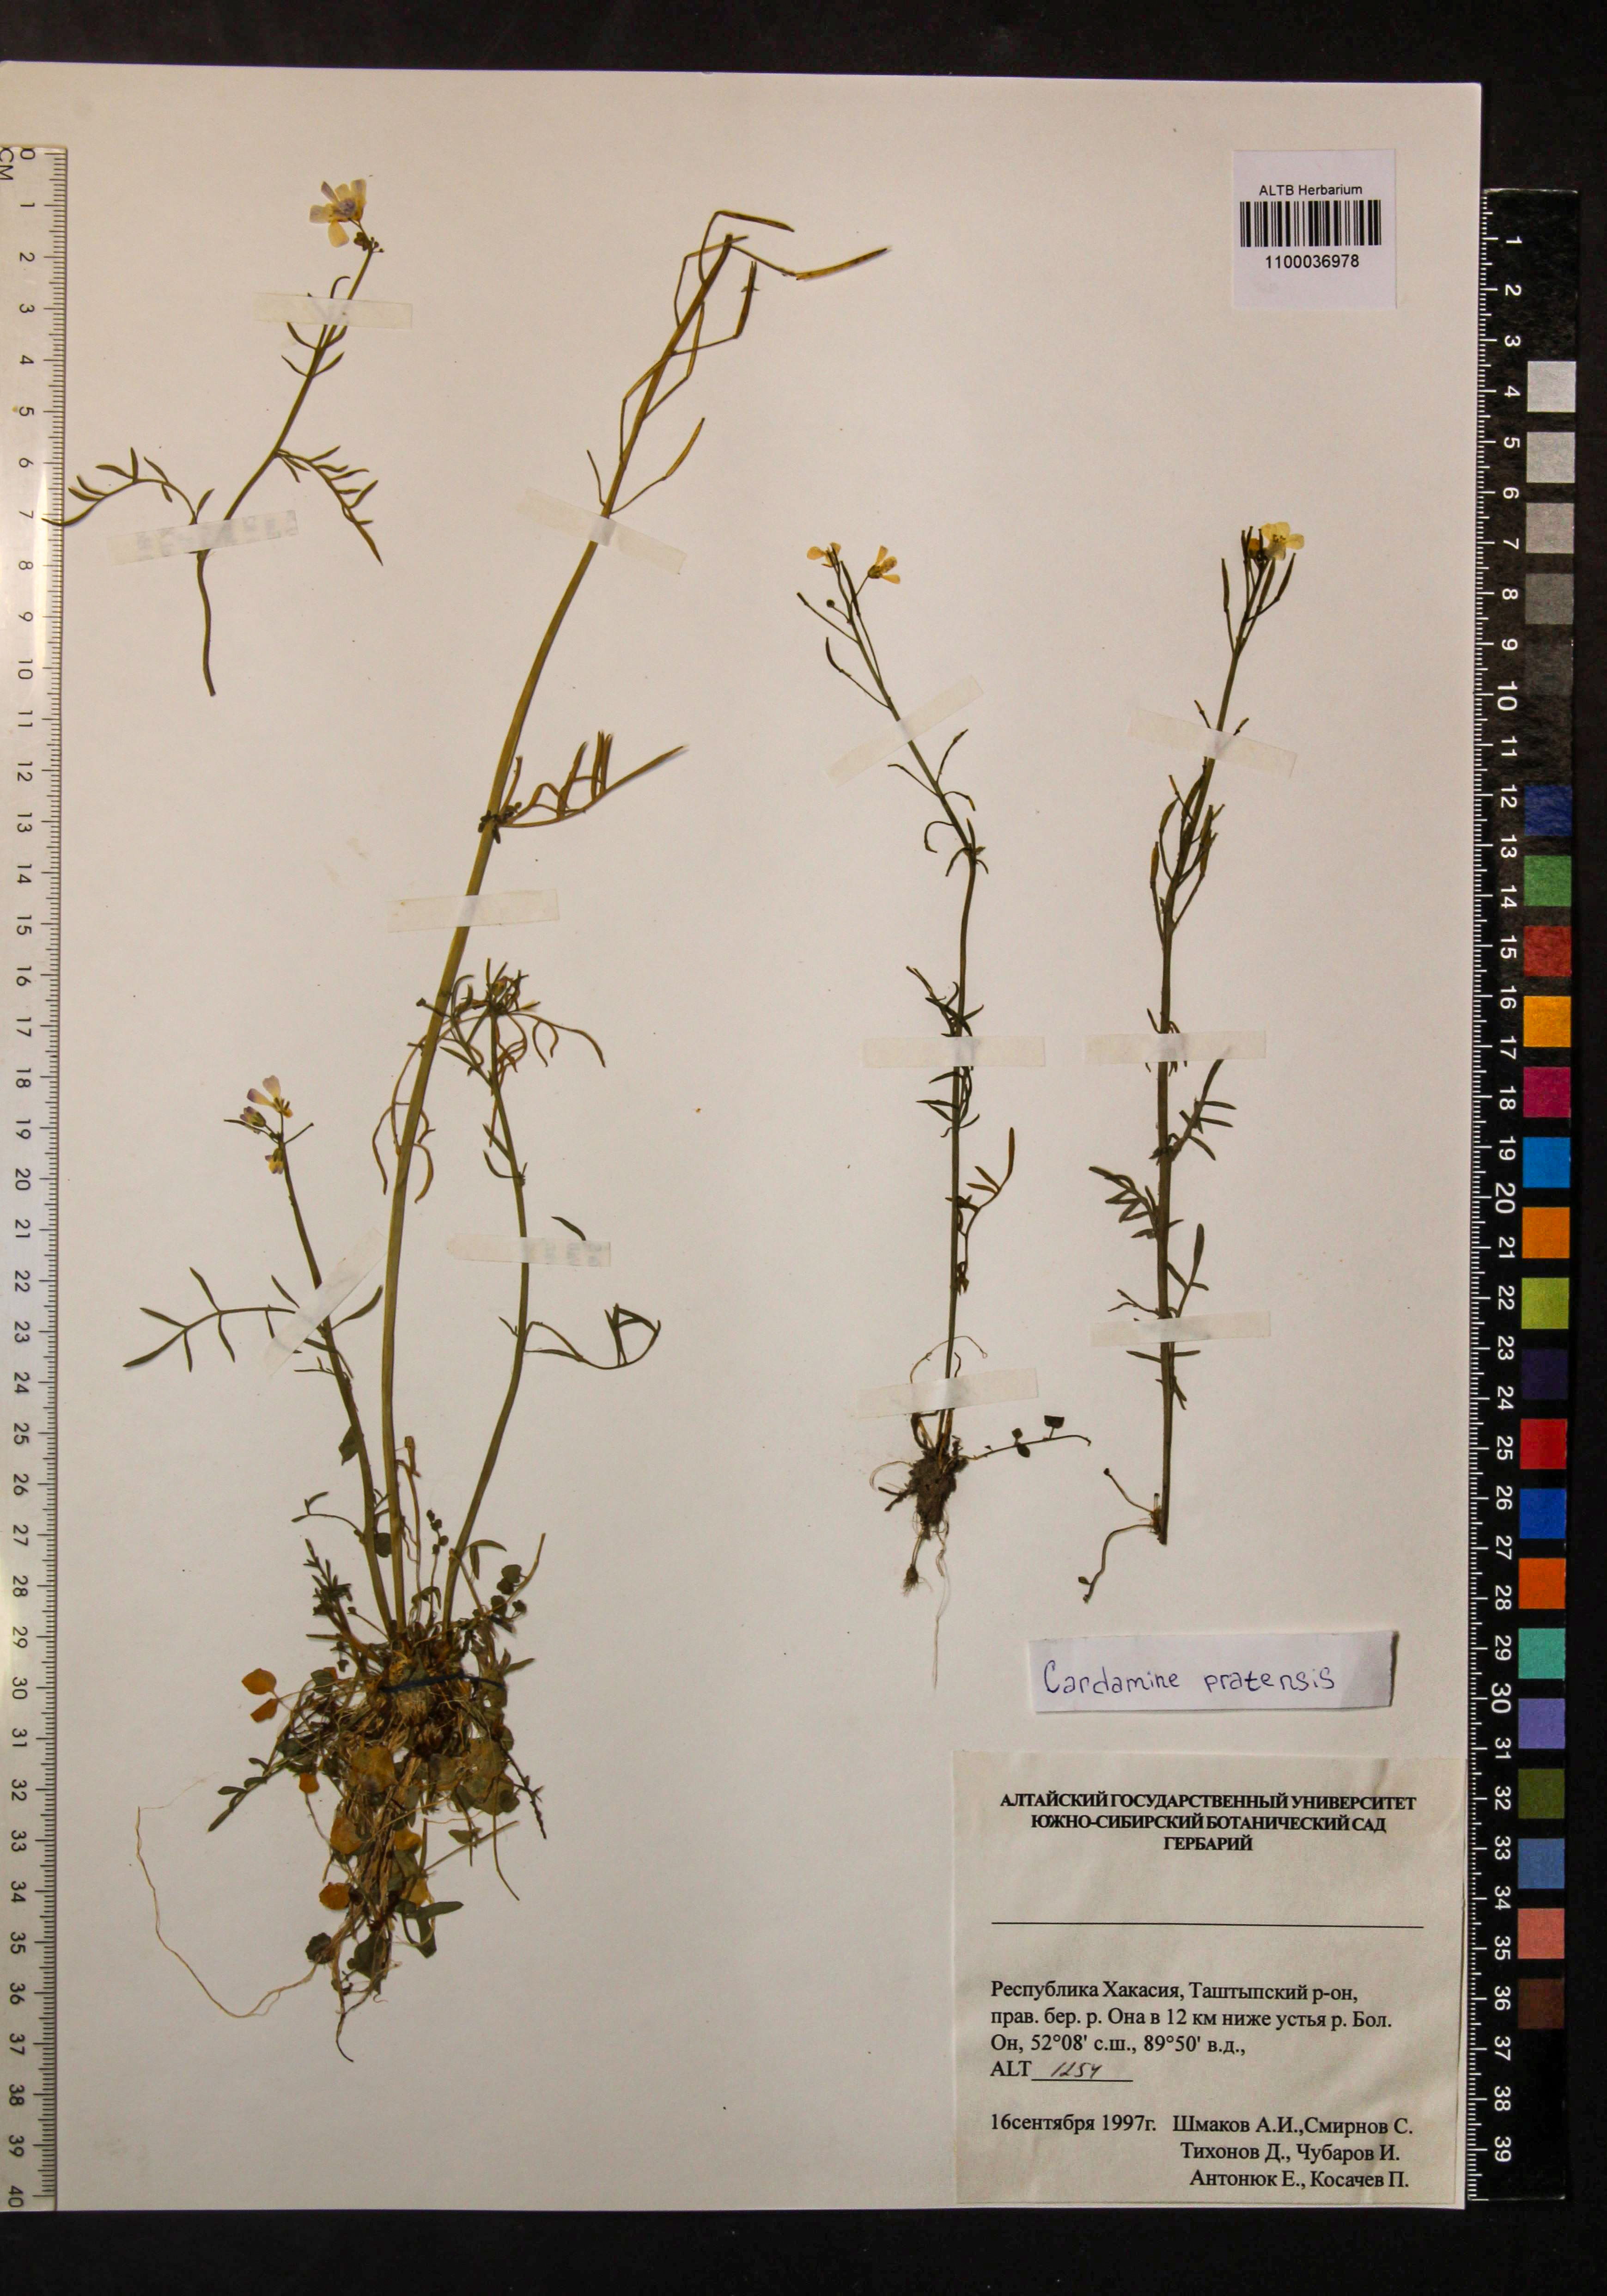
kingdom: Plantae
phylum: Tracheophyta
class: Magnoliopsida
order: Brassicales
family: Brassicaceae
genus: Cardamine
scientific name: Cardamine pratensis
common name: Cuckoo flower
